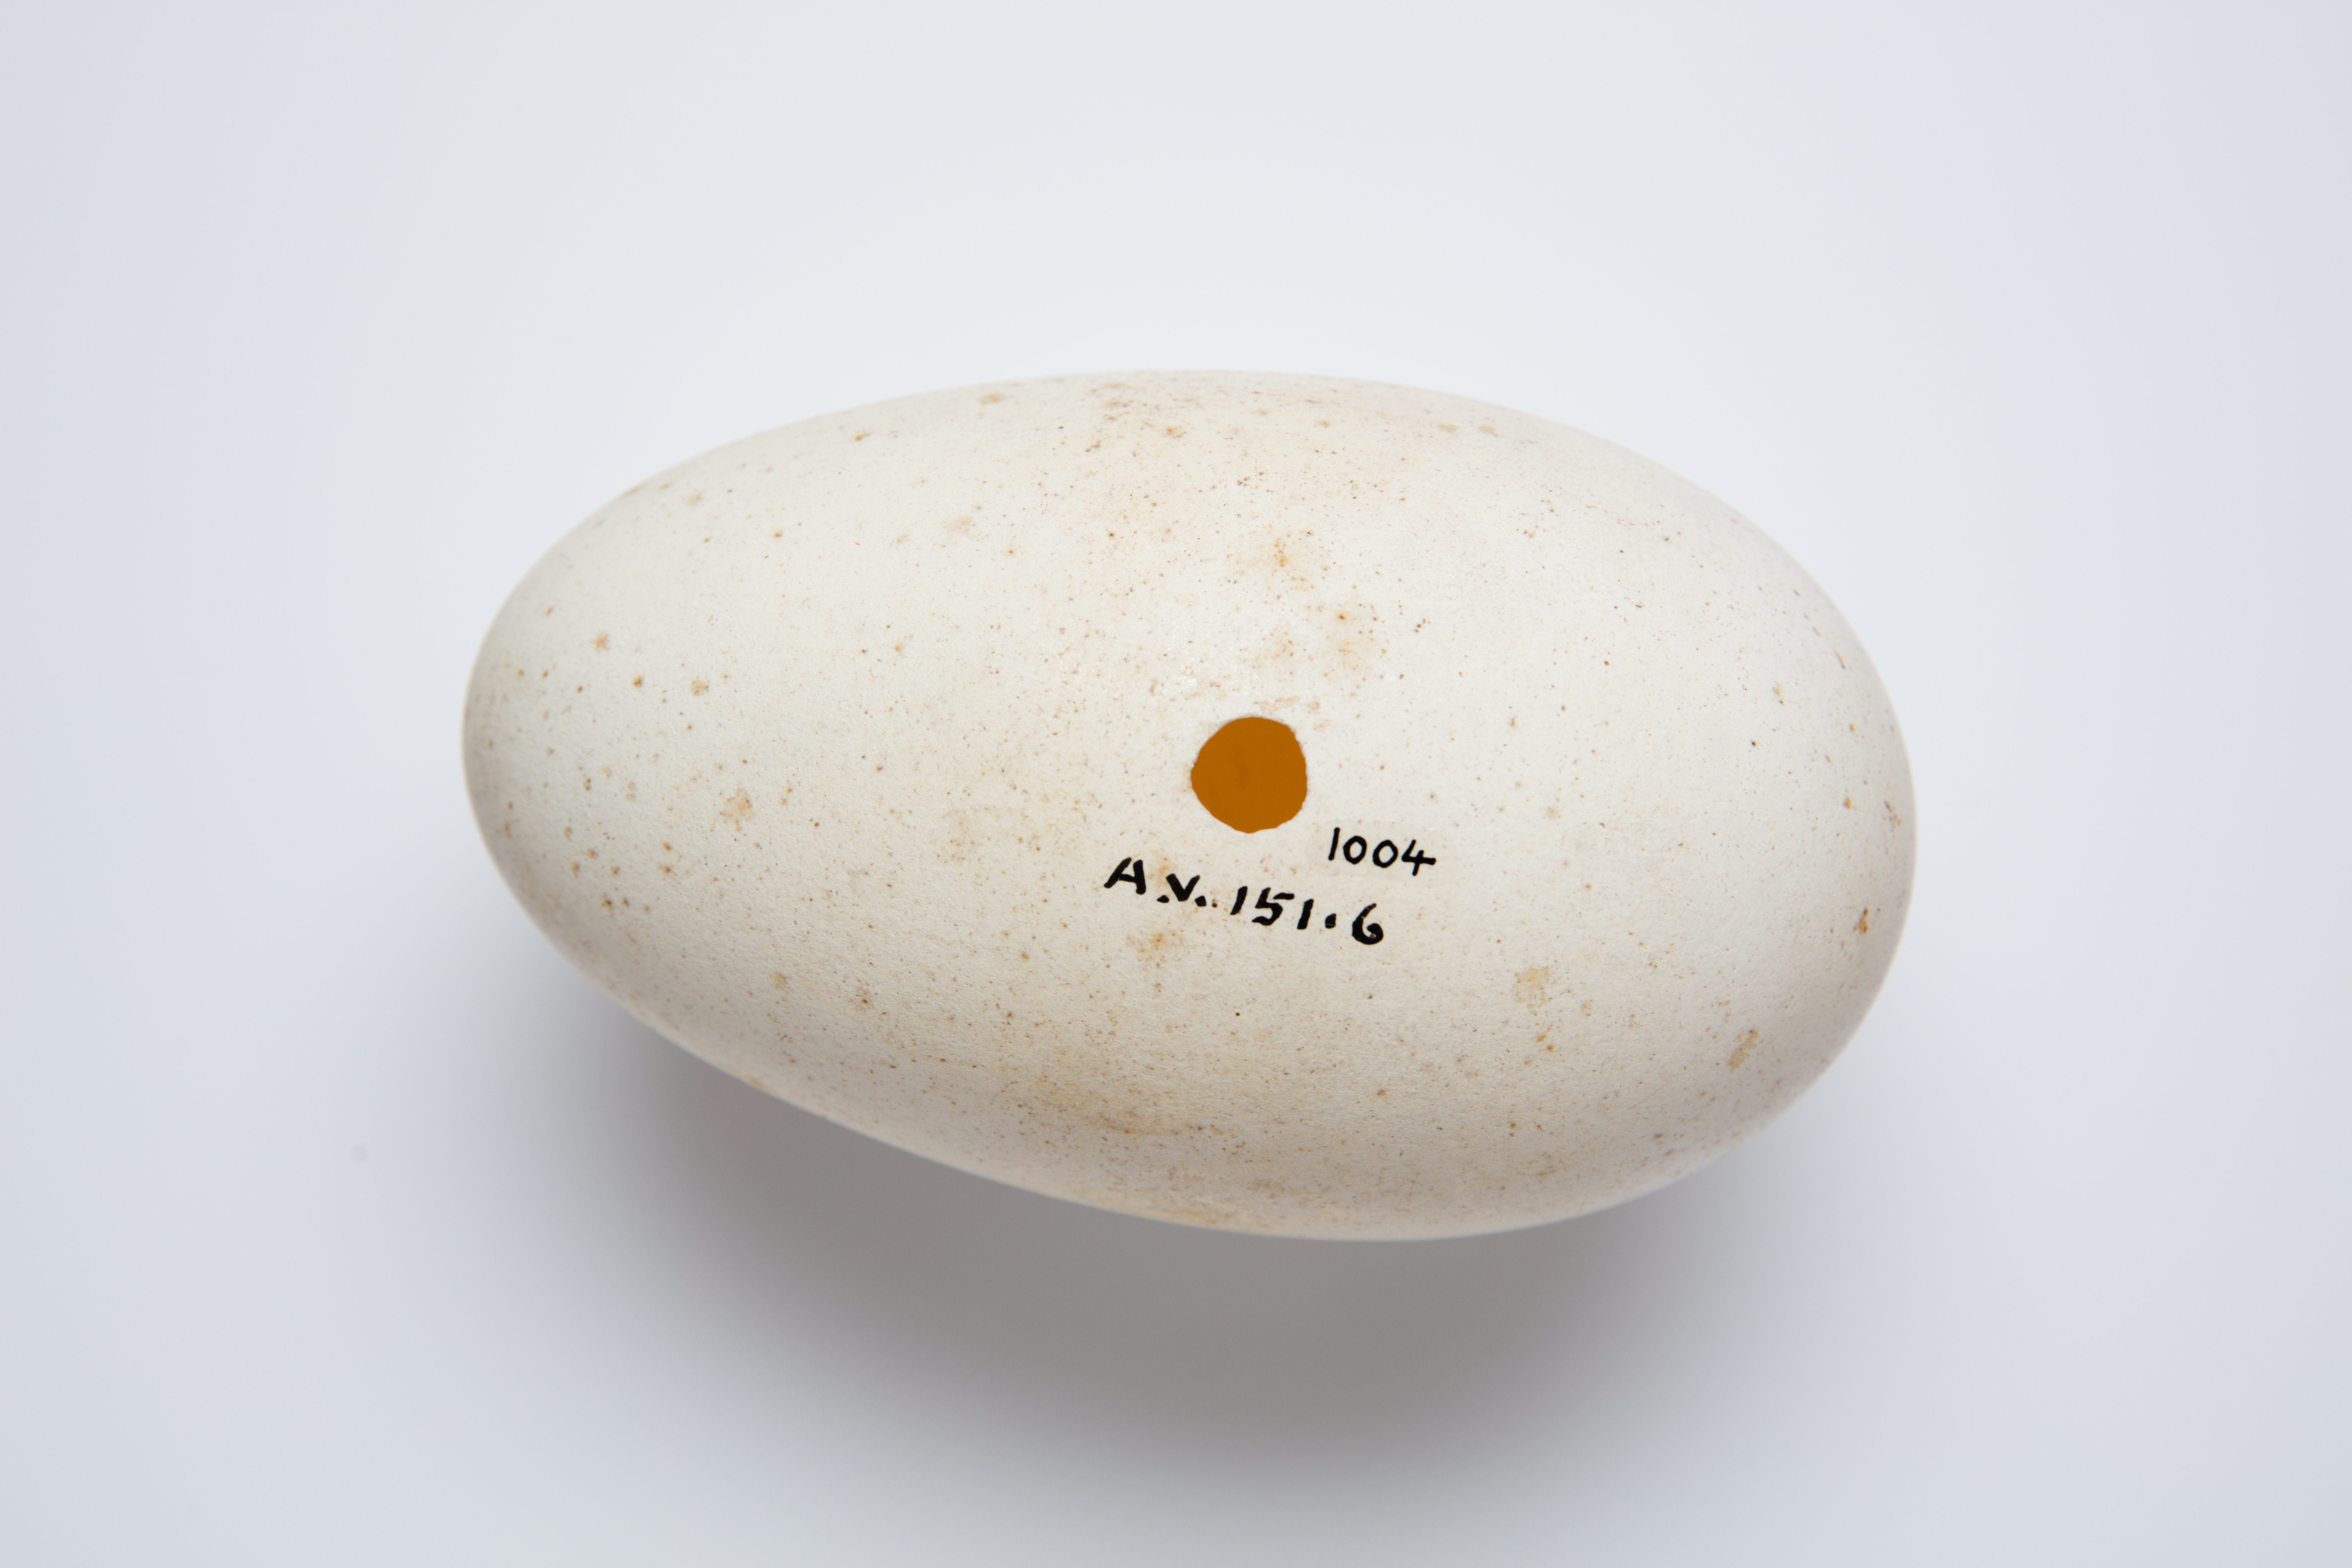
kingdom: Animalia
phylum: Chordata
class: Aves
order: Procellariiformes
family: Diomedeidae
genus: Diomedea
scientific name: Diomedea epomophora
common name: Southern royal albatross
